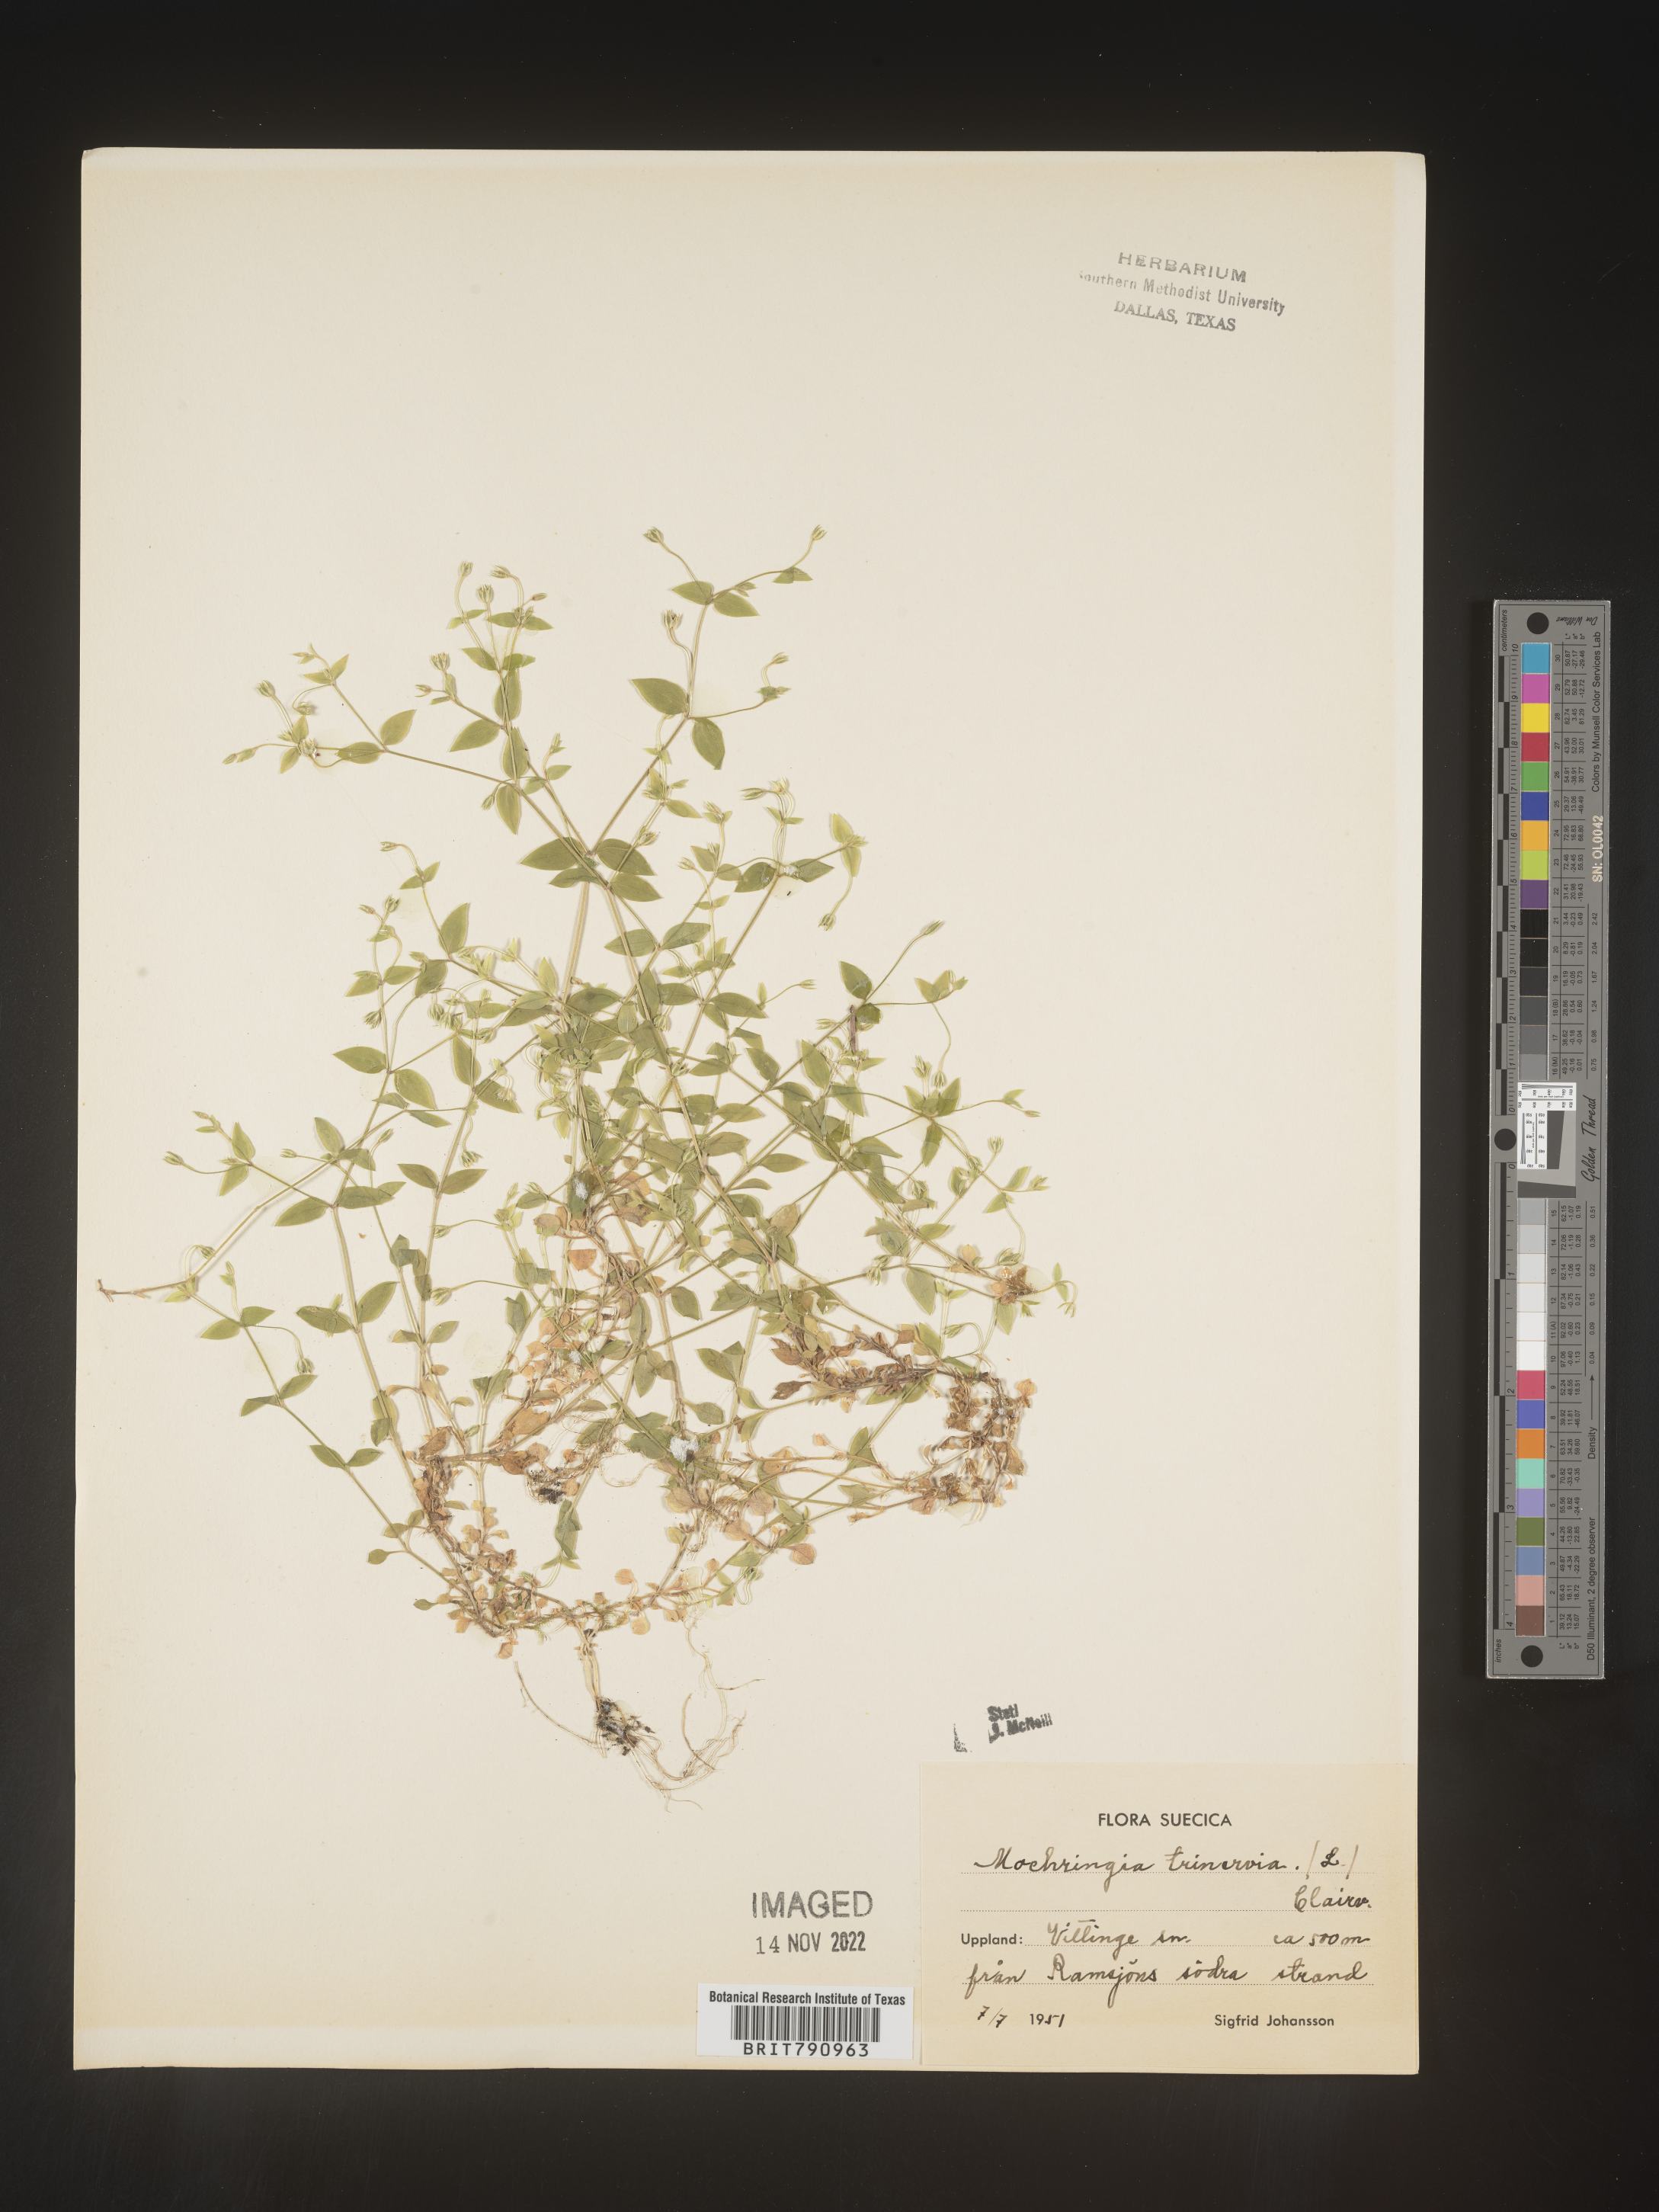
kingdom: Plantae
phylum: Tracheophyta
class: Magnoliopsida
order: Caryophyllales
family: Caryophyllaceae
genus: Moehringia
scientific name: Moehringia
